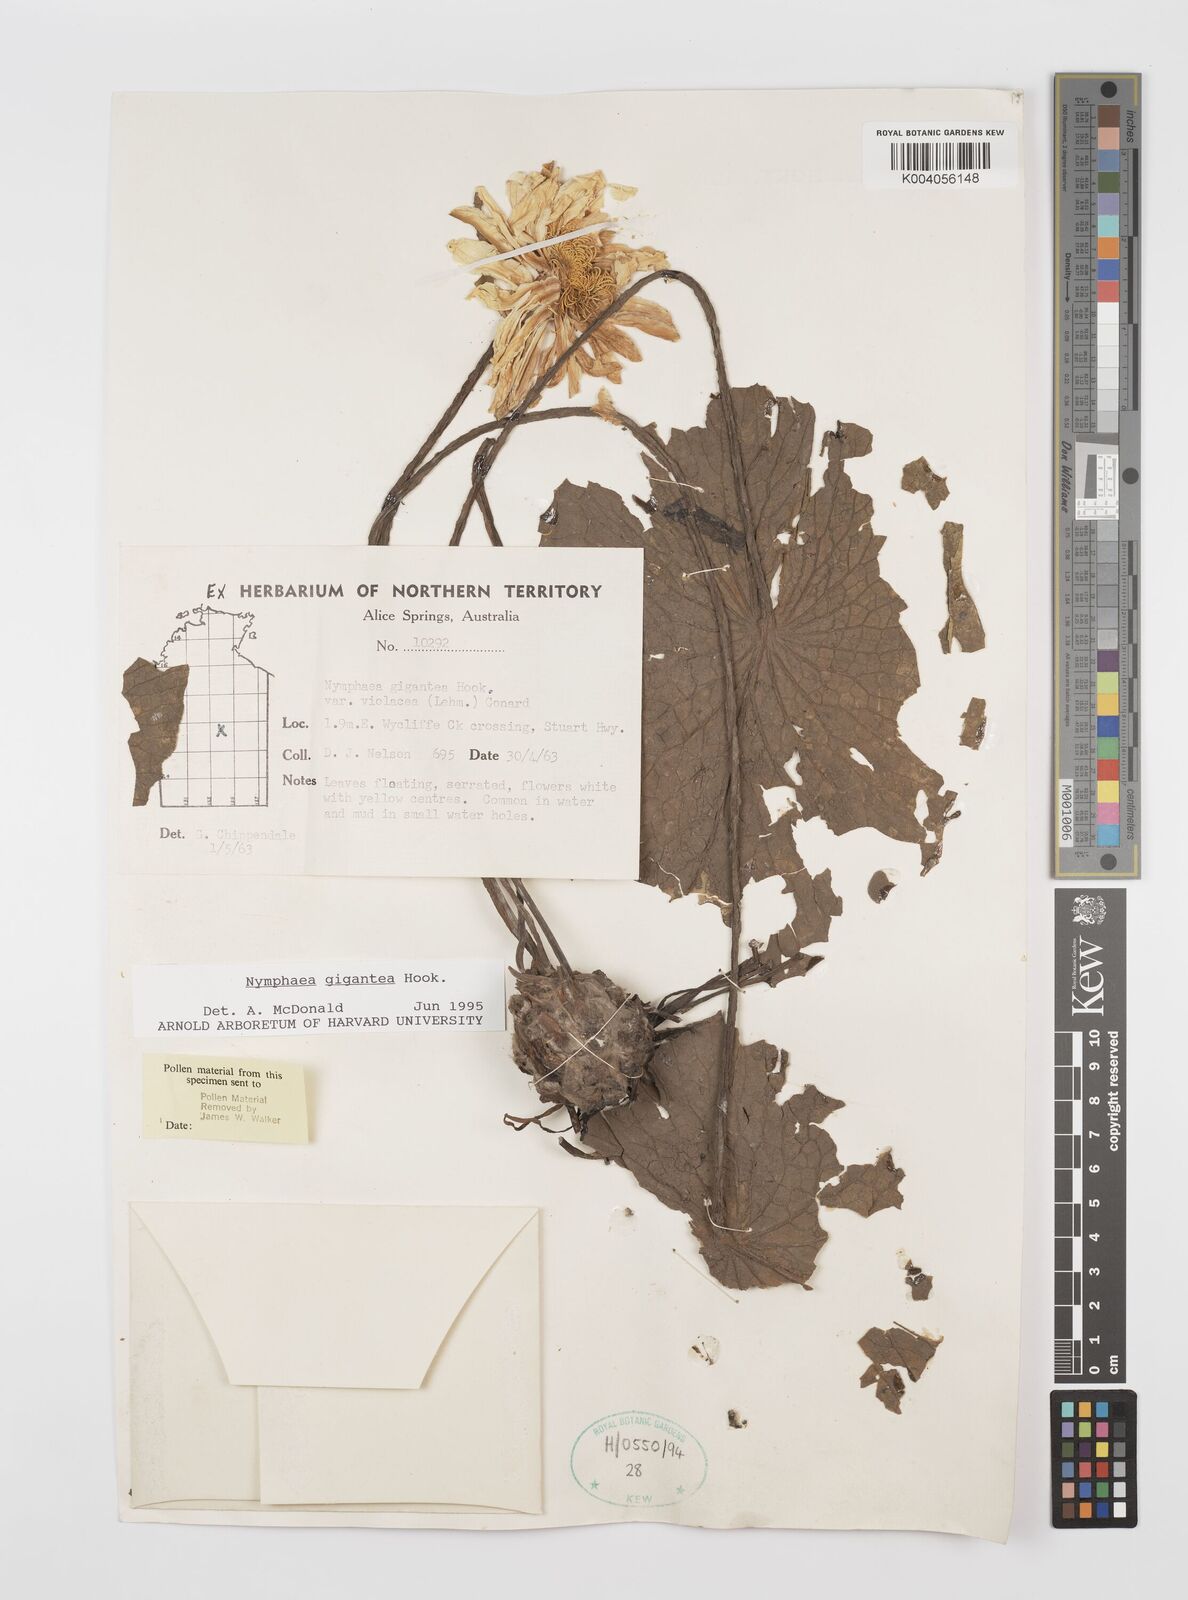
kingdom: Plantae
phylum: Tracheophyta
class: Magnoliopsida
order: Nymphaeales
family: Nymphaeaceae
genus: Nymphaea
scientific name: Nymphaea gigantea
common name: Giant water-lily
